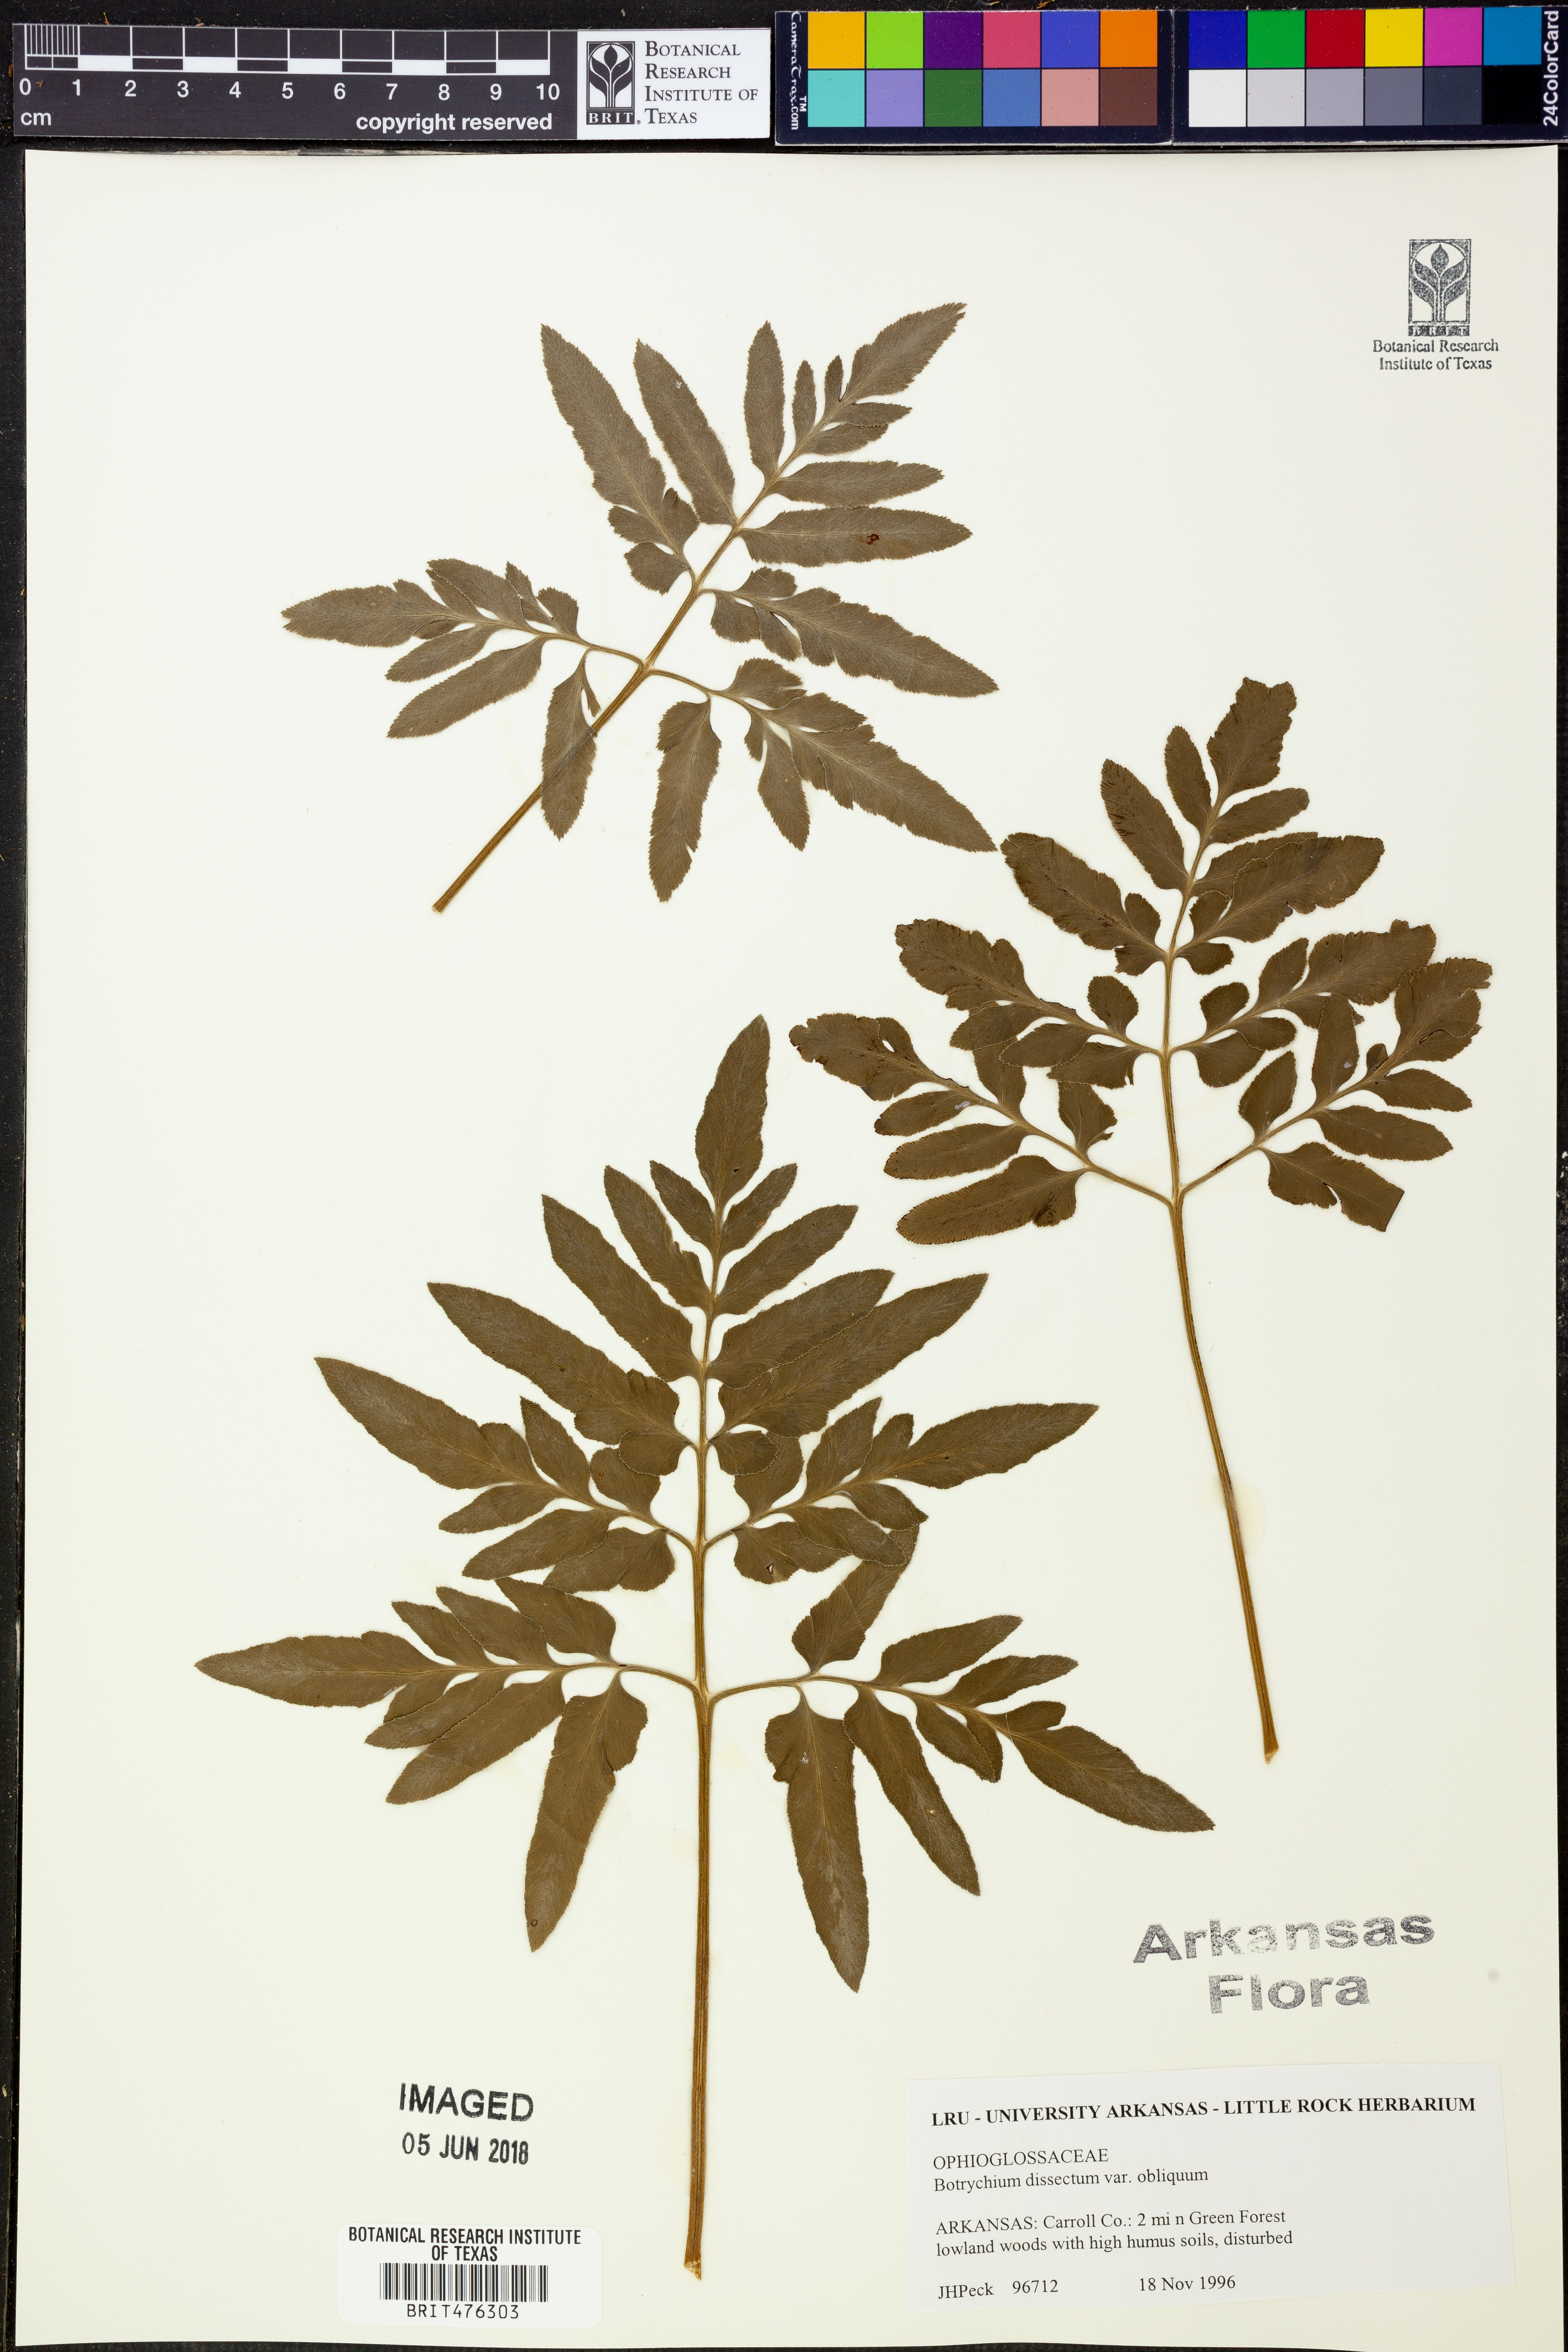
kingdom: Plantae
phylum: Tracheophyta
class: Polypodiopsida
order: Ophioglossales
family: Ophioglossaceae
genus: Sceptridium
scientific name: Sceptridium dissectum
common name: Cut-leaved grapefern
